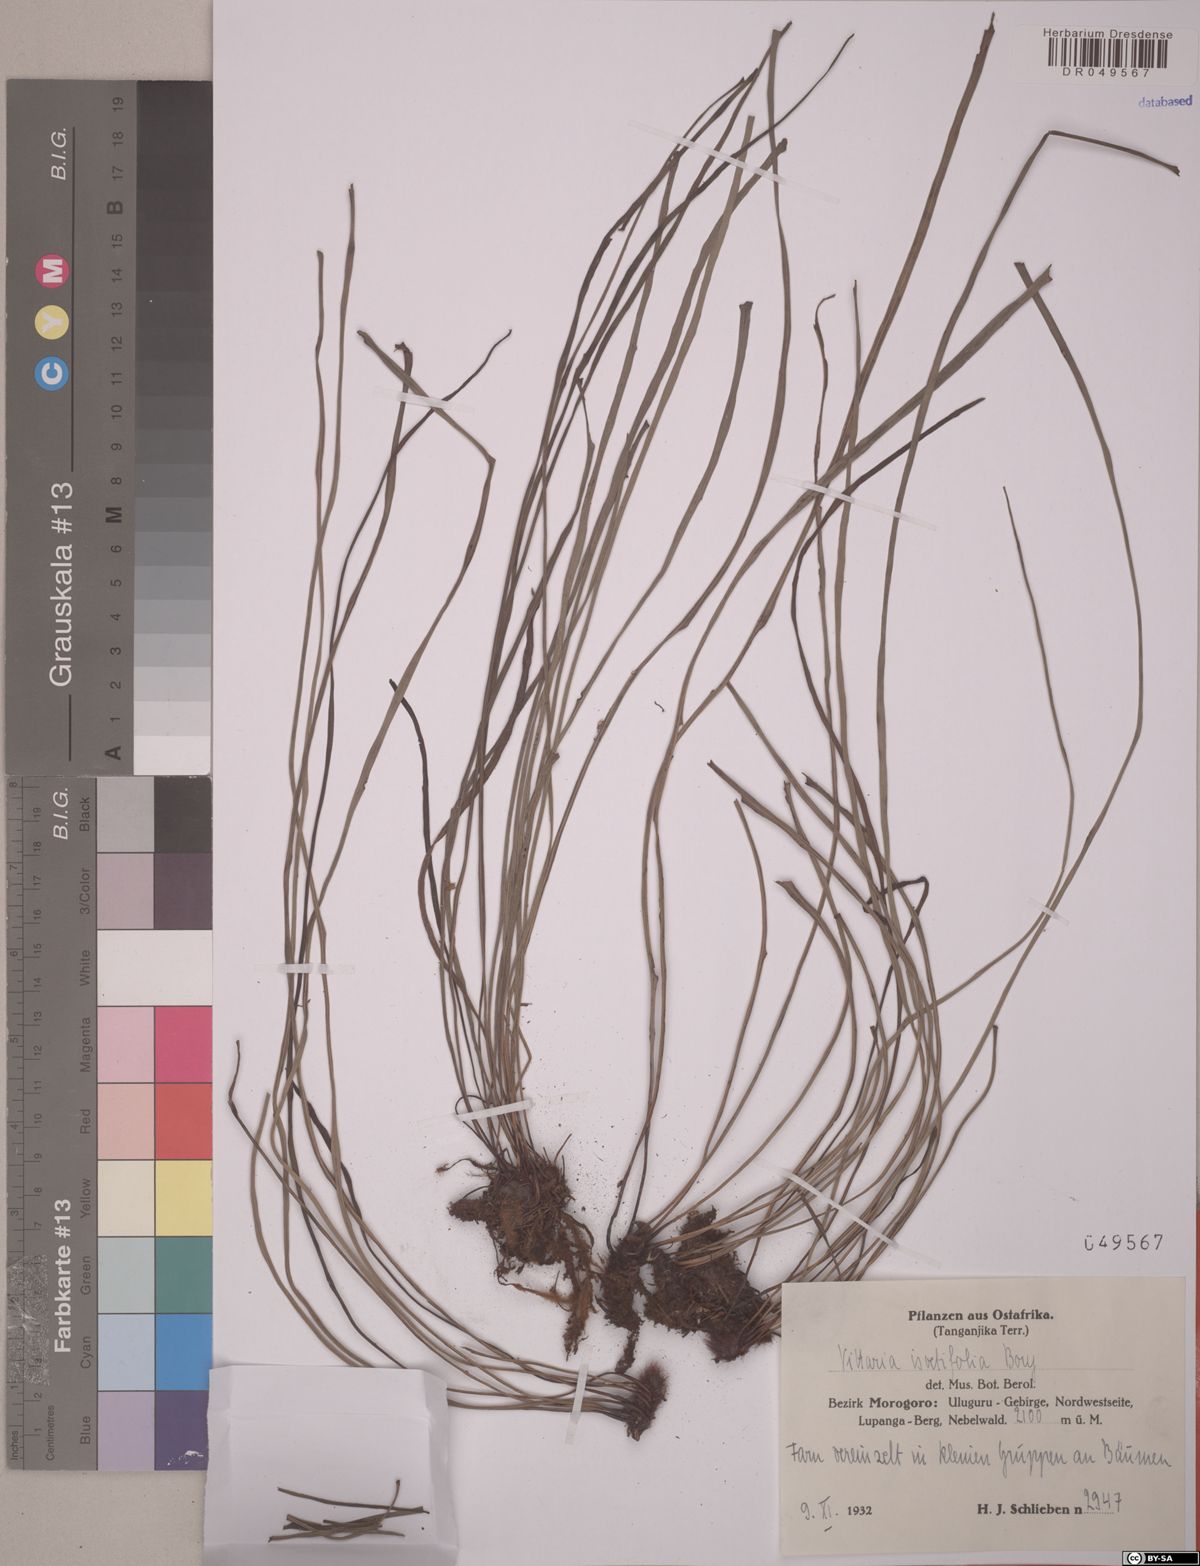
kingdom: Plantae
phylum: Tracheophyta
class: Polypodiopsida
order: Polypodiales
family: Pteridaceae
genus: Vittaria
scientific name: Vittaria isoetifolia
